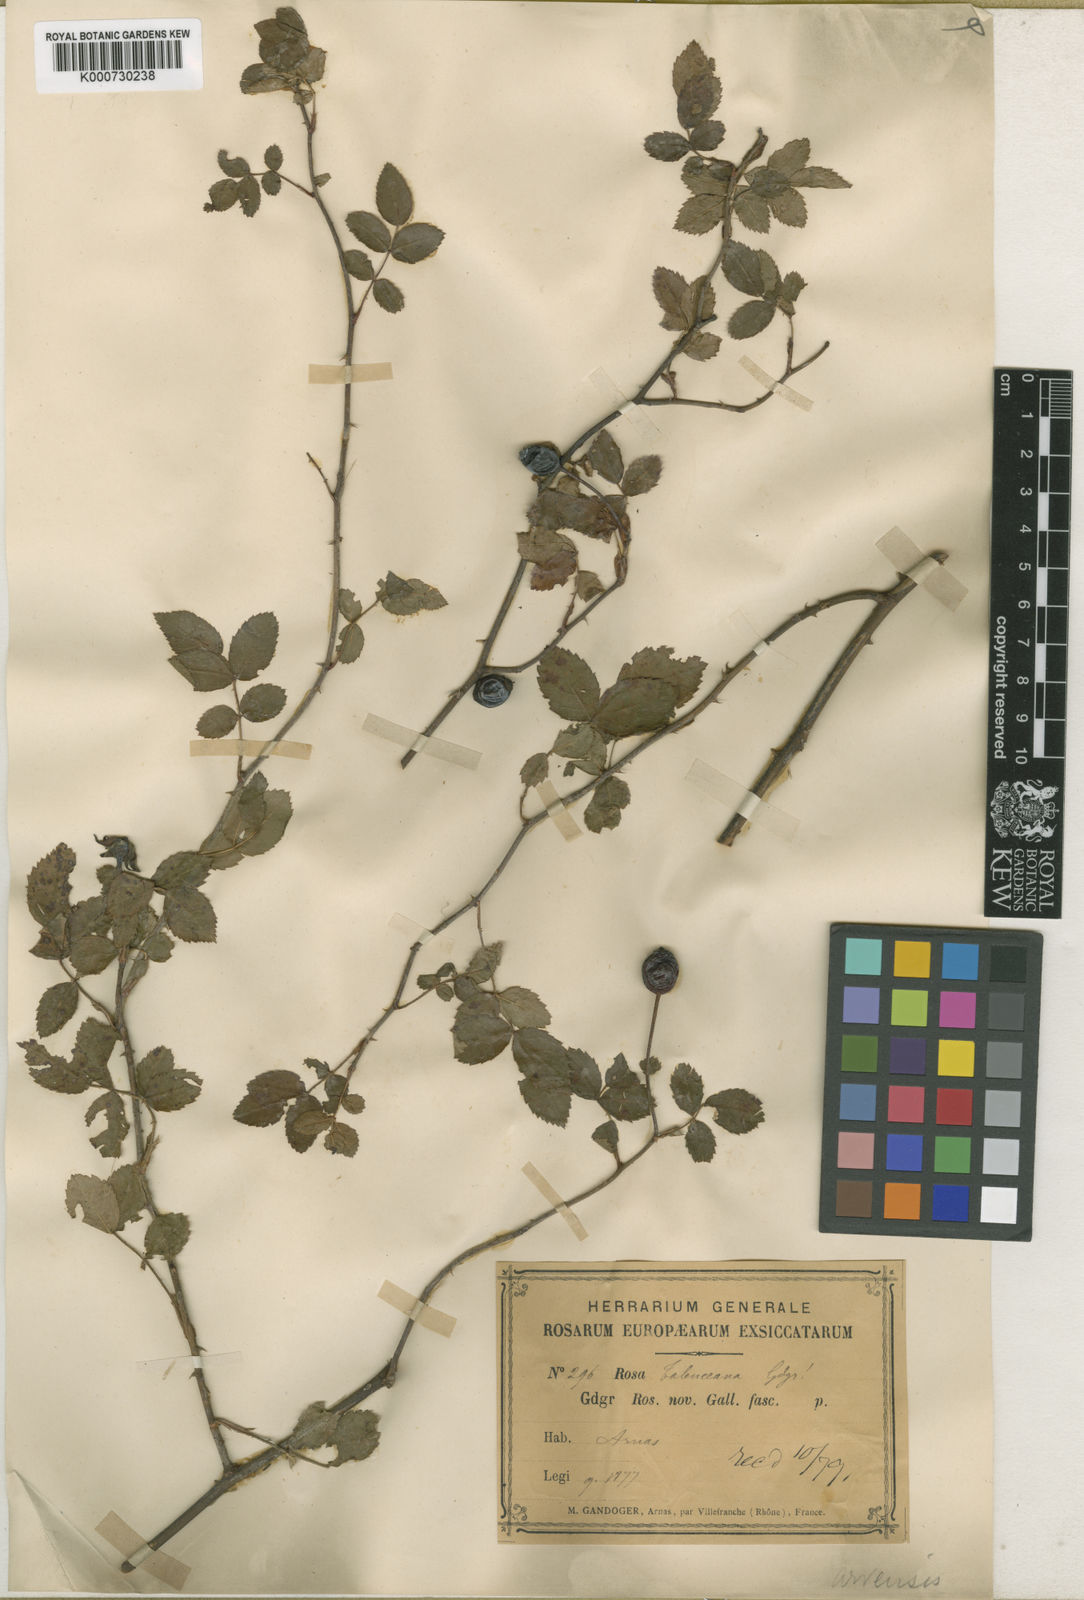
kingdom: Plantae
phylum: Tracheophyta
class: Magnoliopsida
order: Rosales
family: Rosaceae
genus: Rosa
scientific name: Rosa arvensis
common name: Field rose
